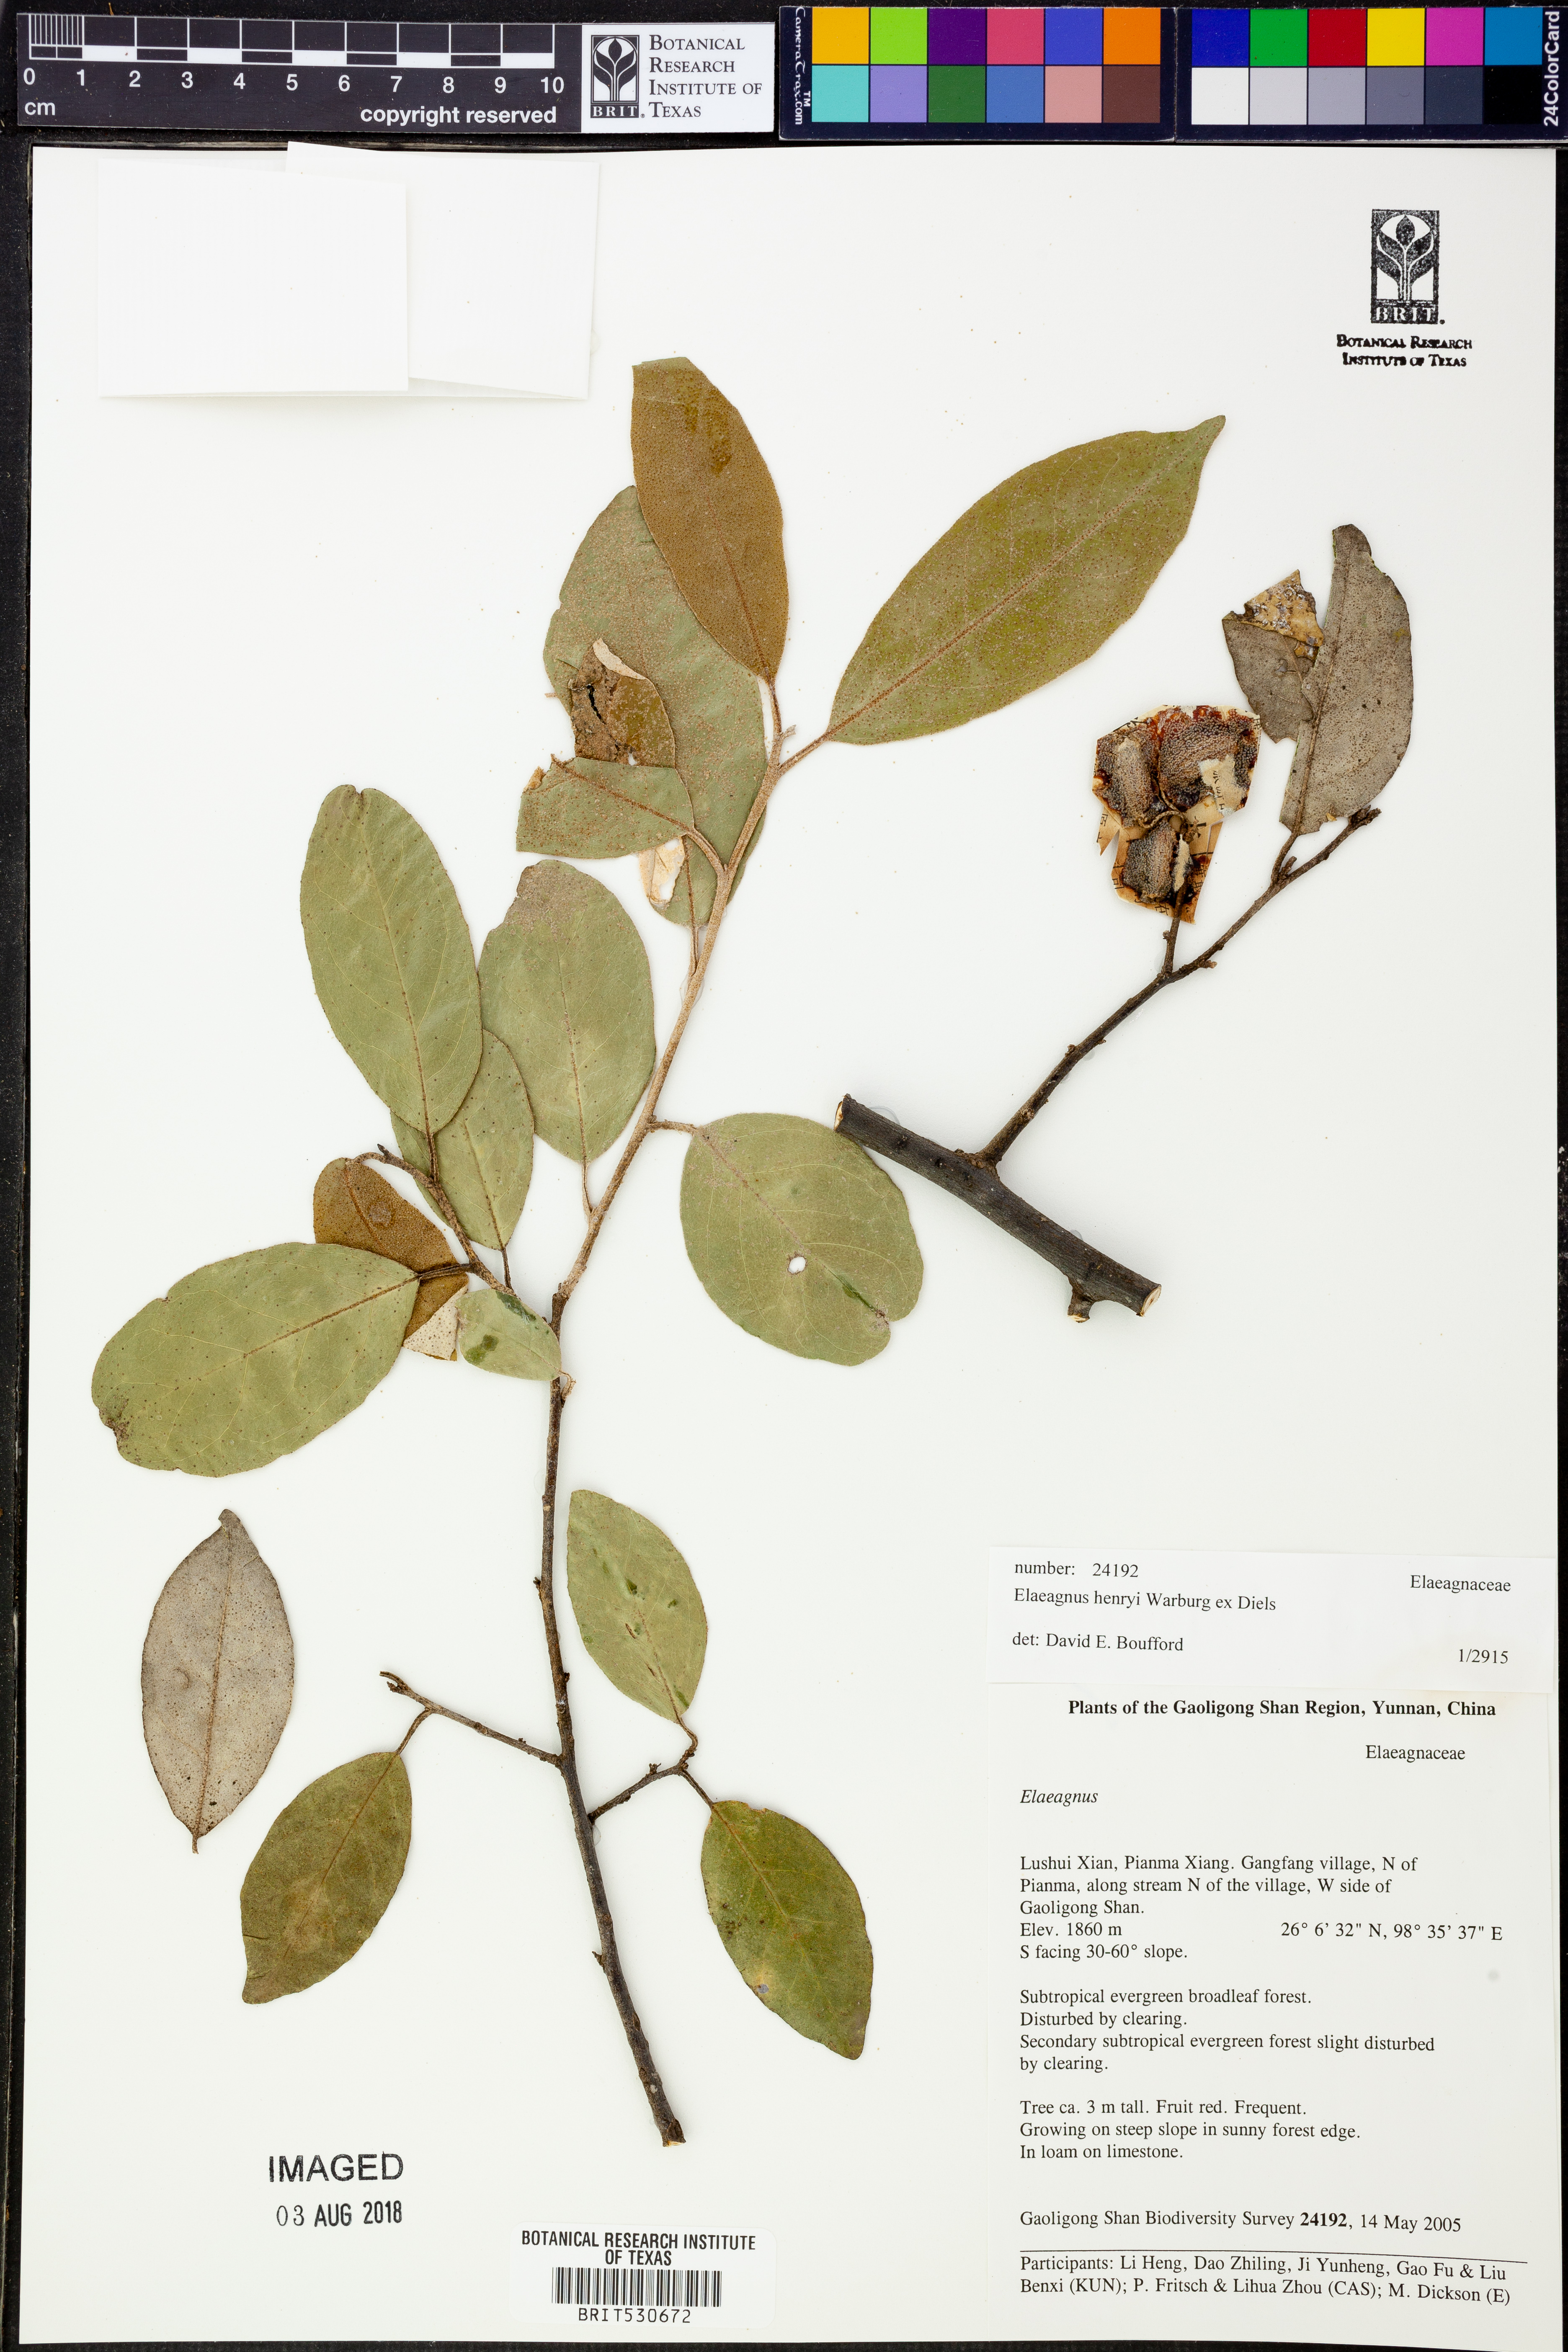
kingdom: Plantae
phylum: Tracheophyta
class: Magnoliopsida
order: Rosales
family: Elaeagnaceae
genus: Elaeagnus
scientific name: Elaeagnus henryi
